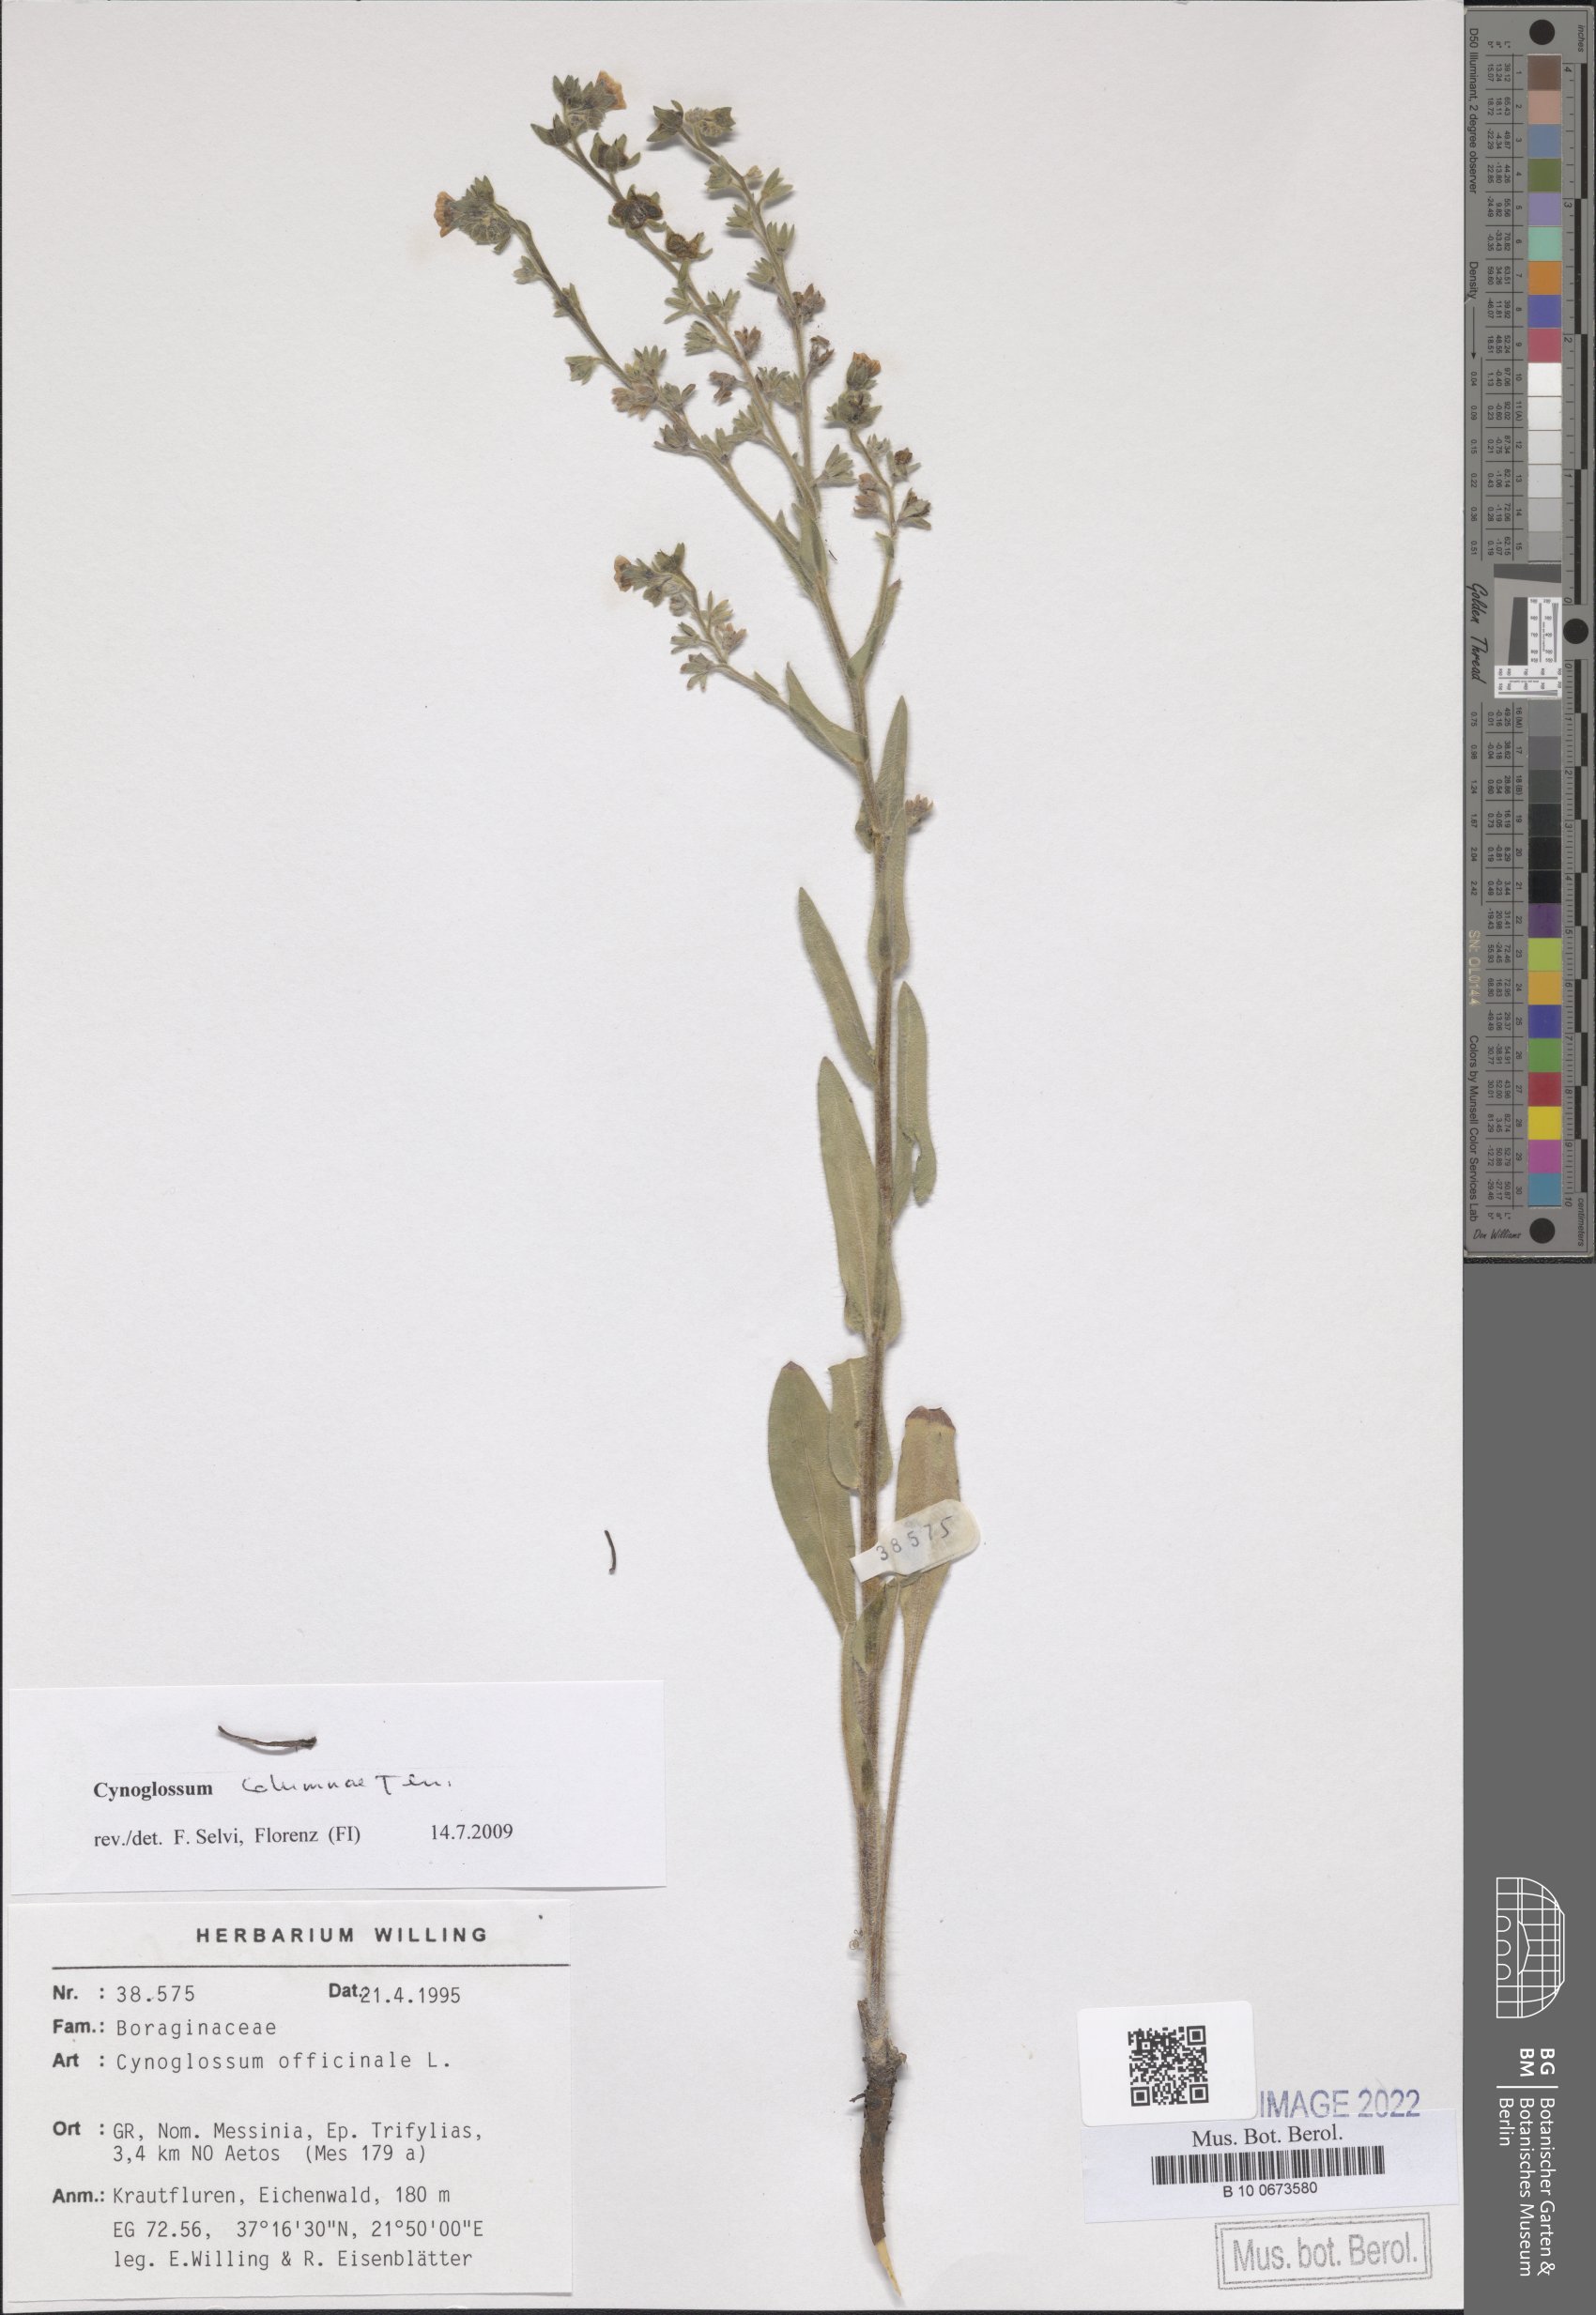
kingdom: Plantae
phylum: Tracheophyta
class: Magnoliopsida
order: Boraginales
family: Boraginaceae
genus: Rindera
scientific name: Rindera columnae
